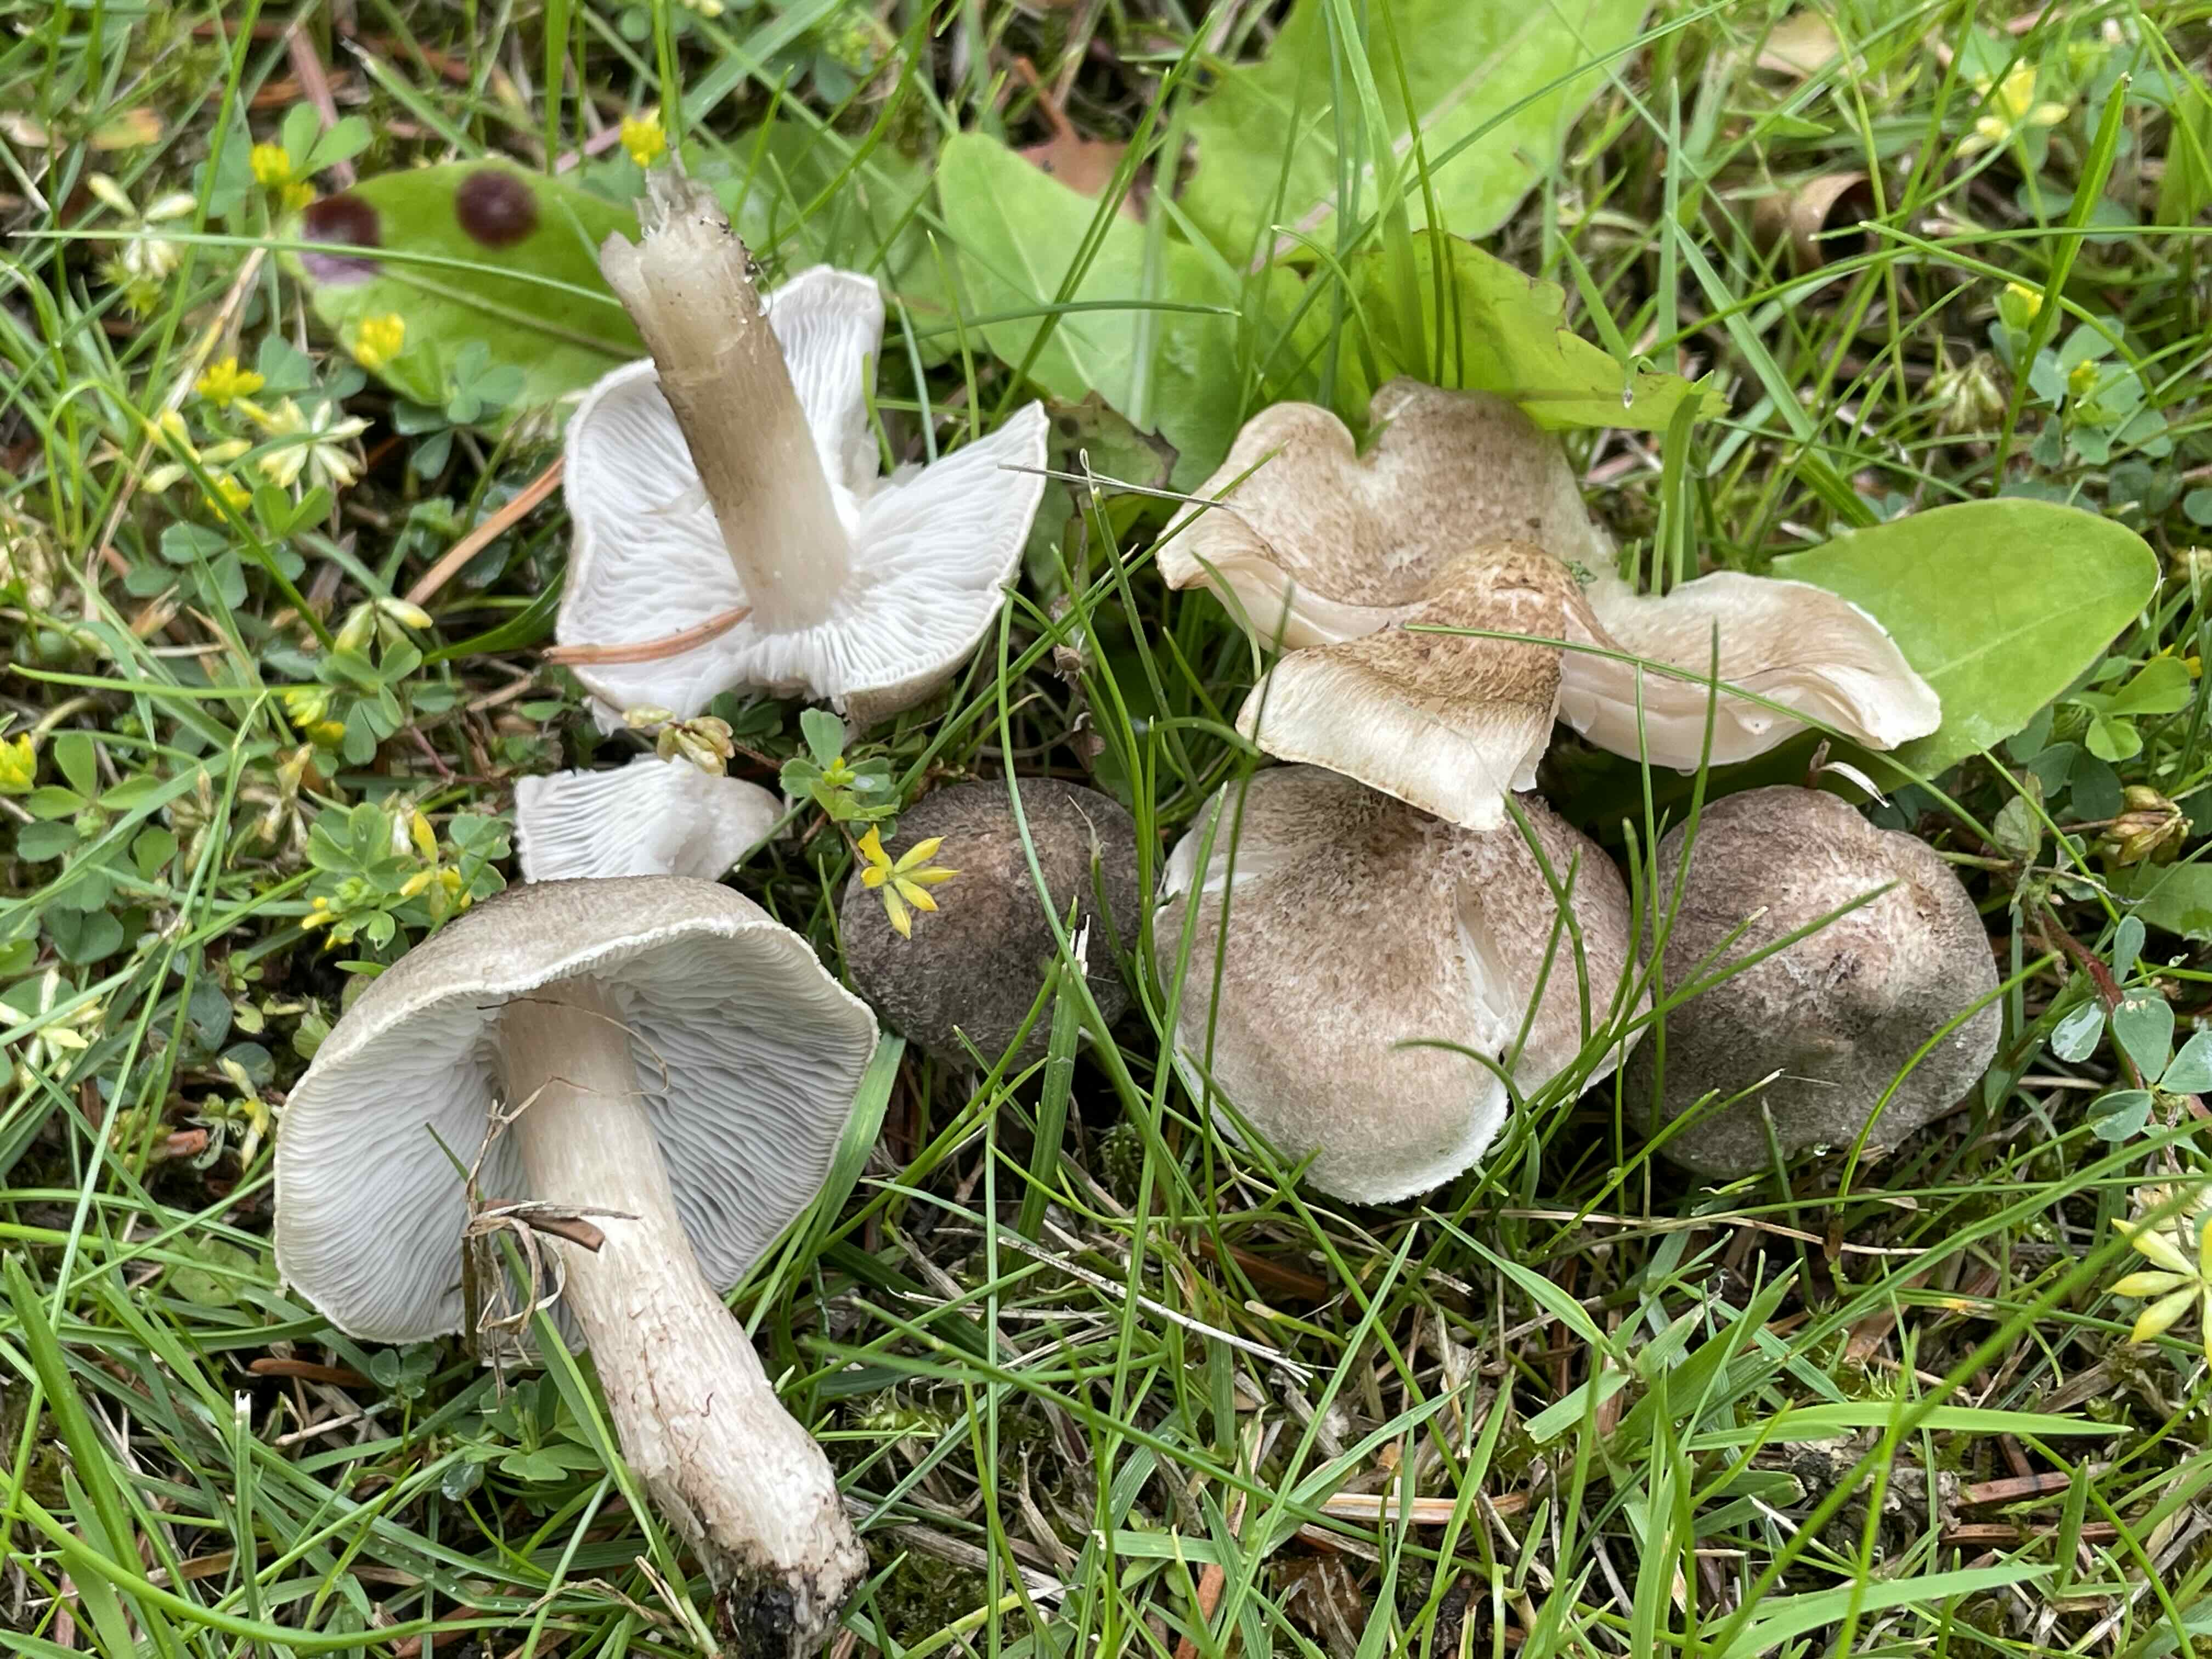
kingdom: Fungi
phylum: Basidiomycota
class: Agaricomycetes
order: Agaricales
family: Tricholomataceae
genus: Tricholoma
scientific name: Tricholoma
